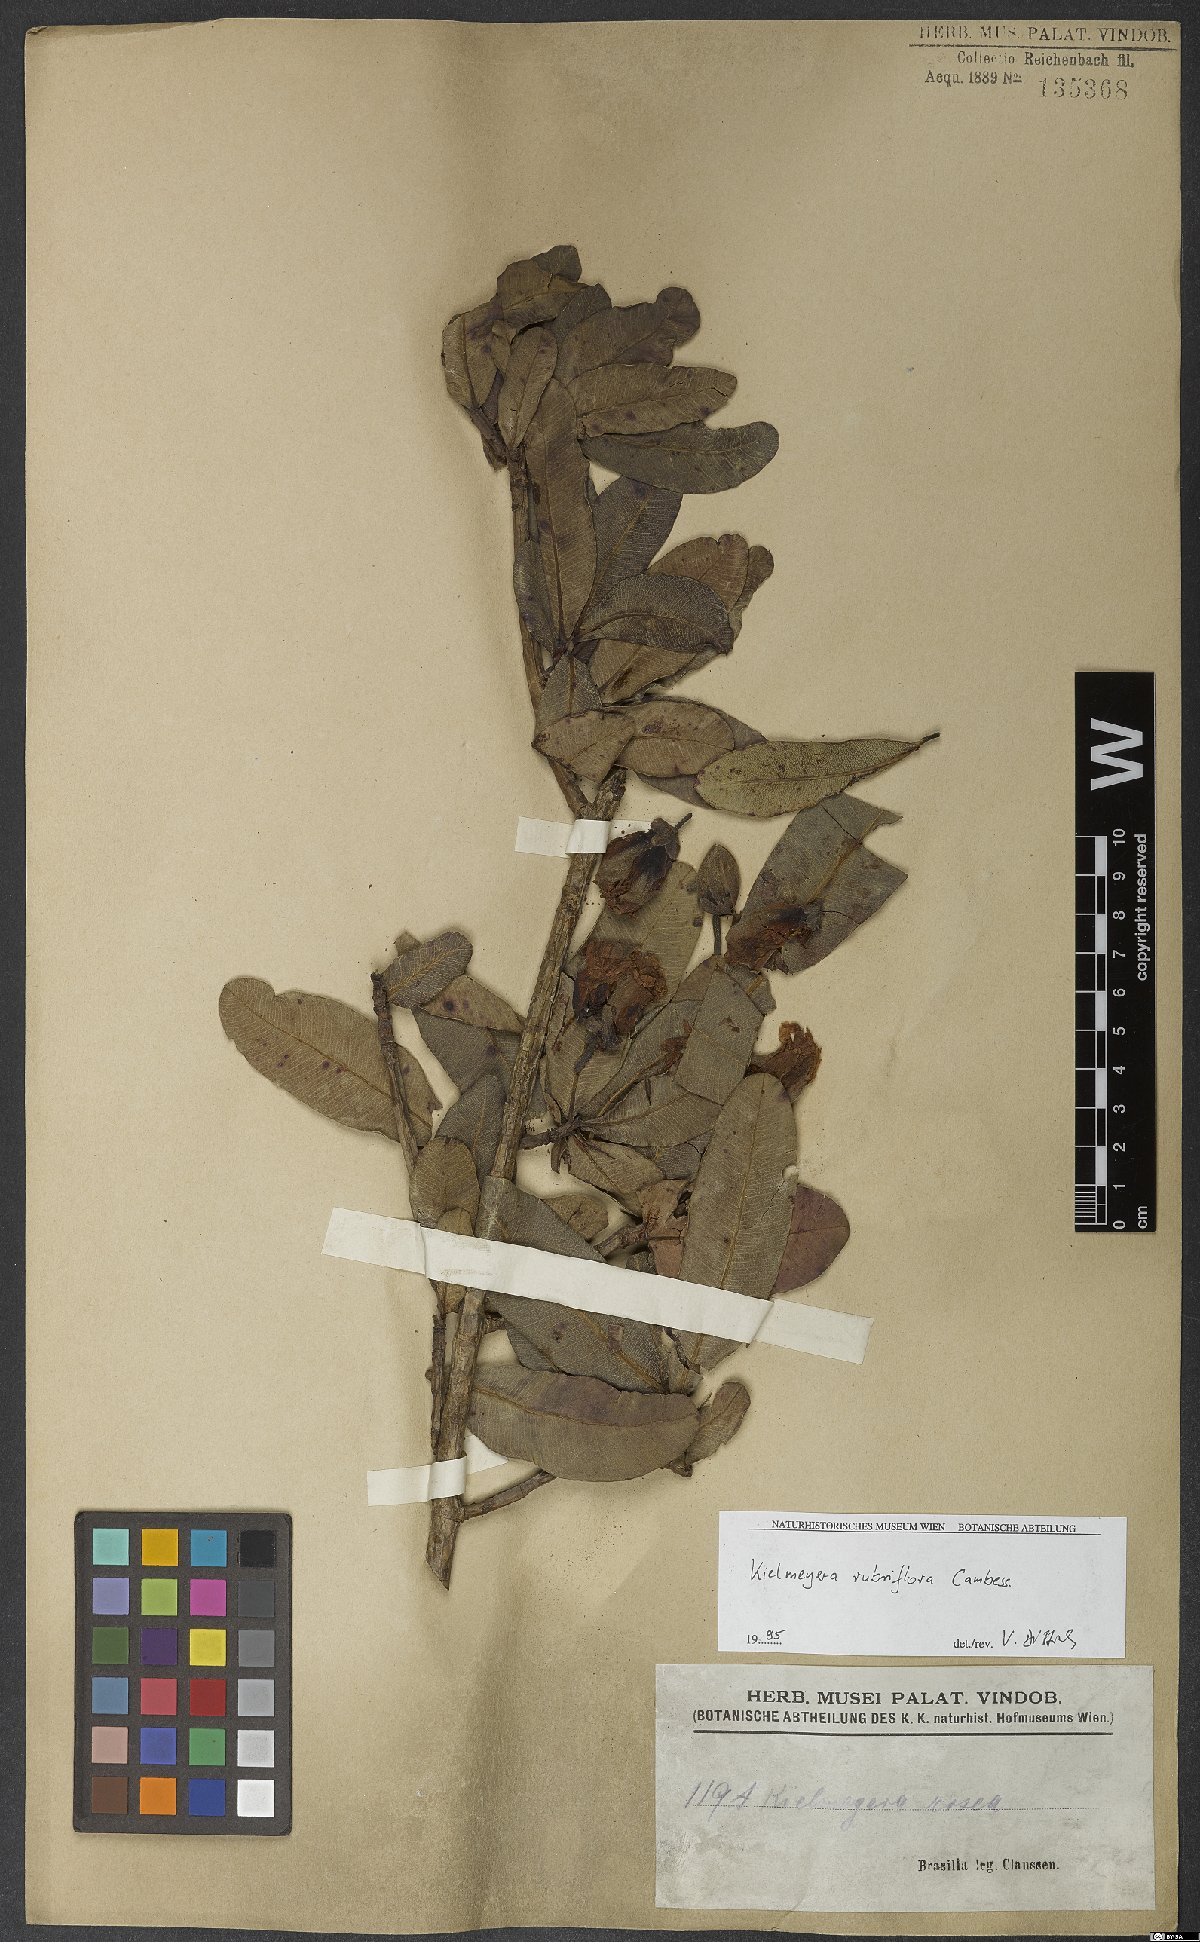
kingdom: Plantae
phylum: Tracheophyta
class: Magnoliopsida
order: Malpighiales
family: Calophyllaceae
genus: Kielmeyera
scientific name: Kielmeyera rubriflora
